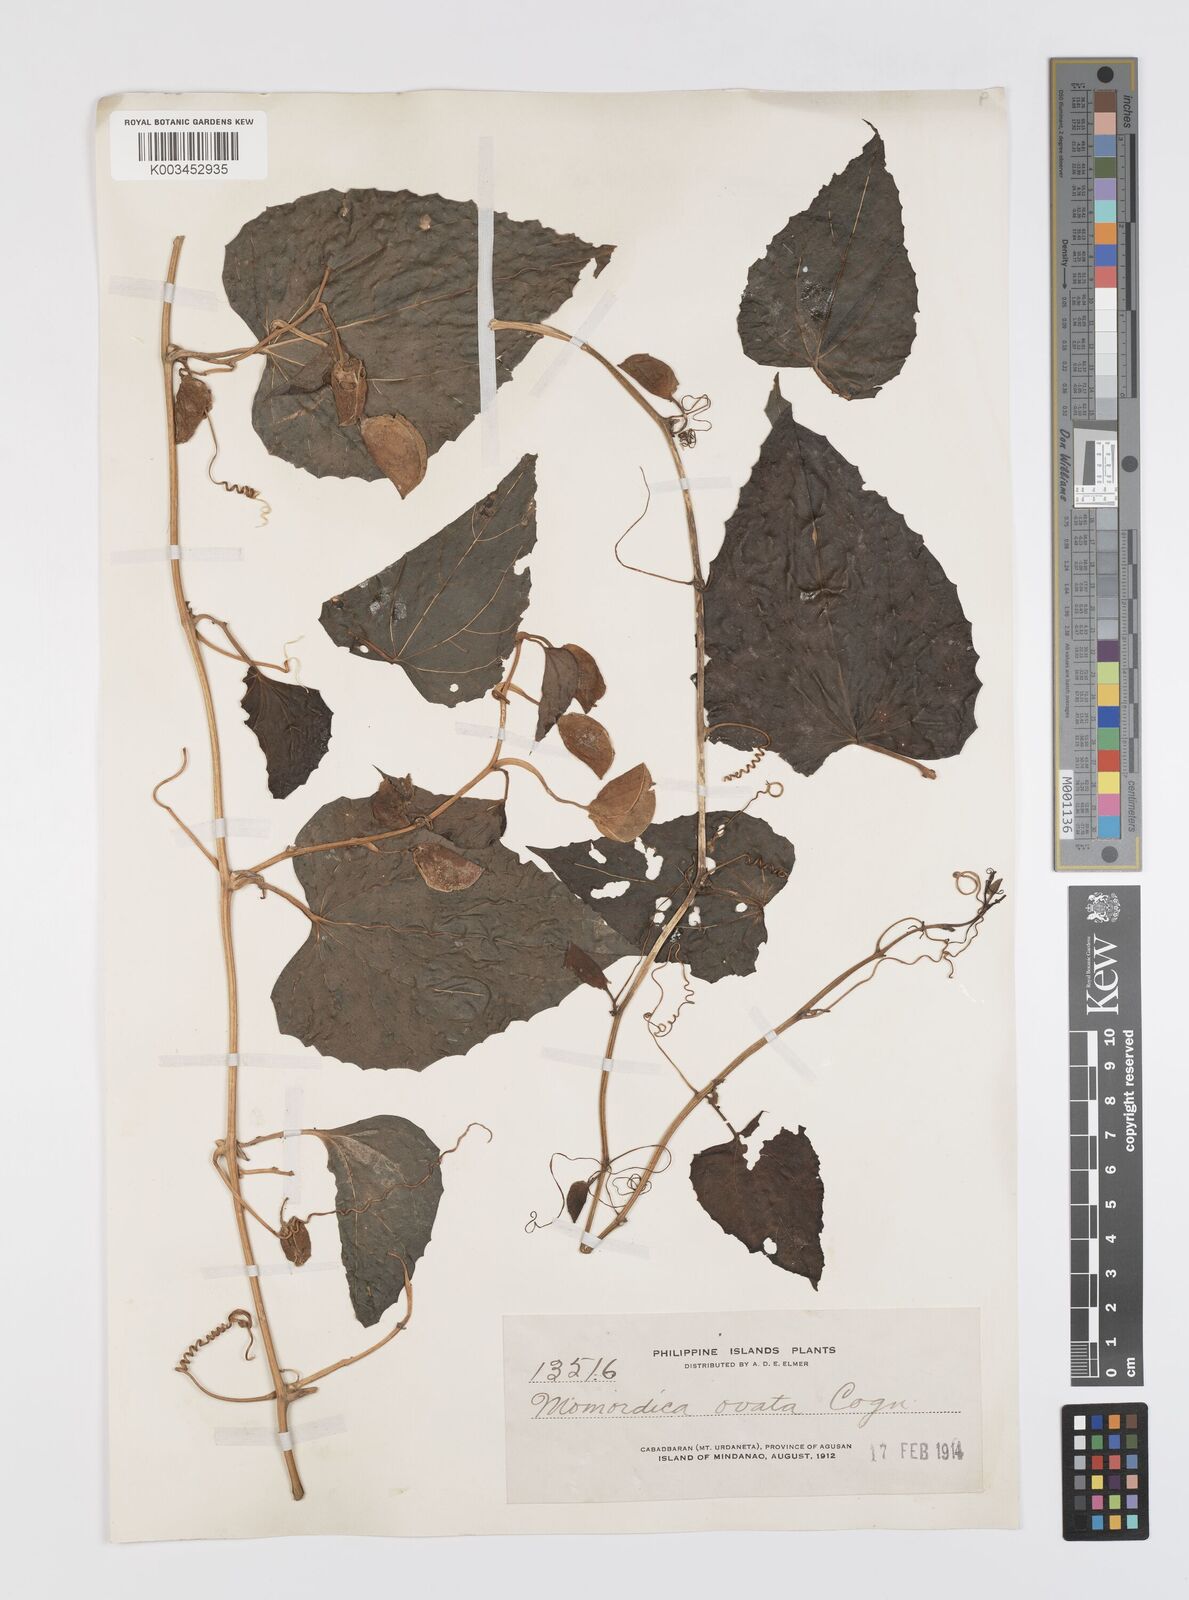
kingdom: Plantae
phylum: Tracheophyta
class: Magnoliopsida
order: Cucurbitales
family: Cucurbitaceae
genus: Momordica
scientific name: Momordica cochinchinensis
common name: Chinese bitter-cucumber
